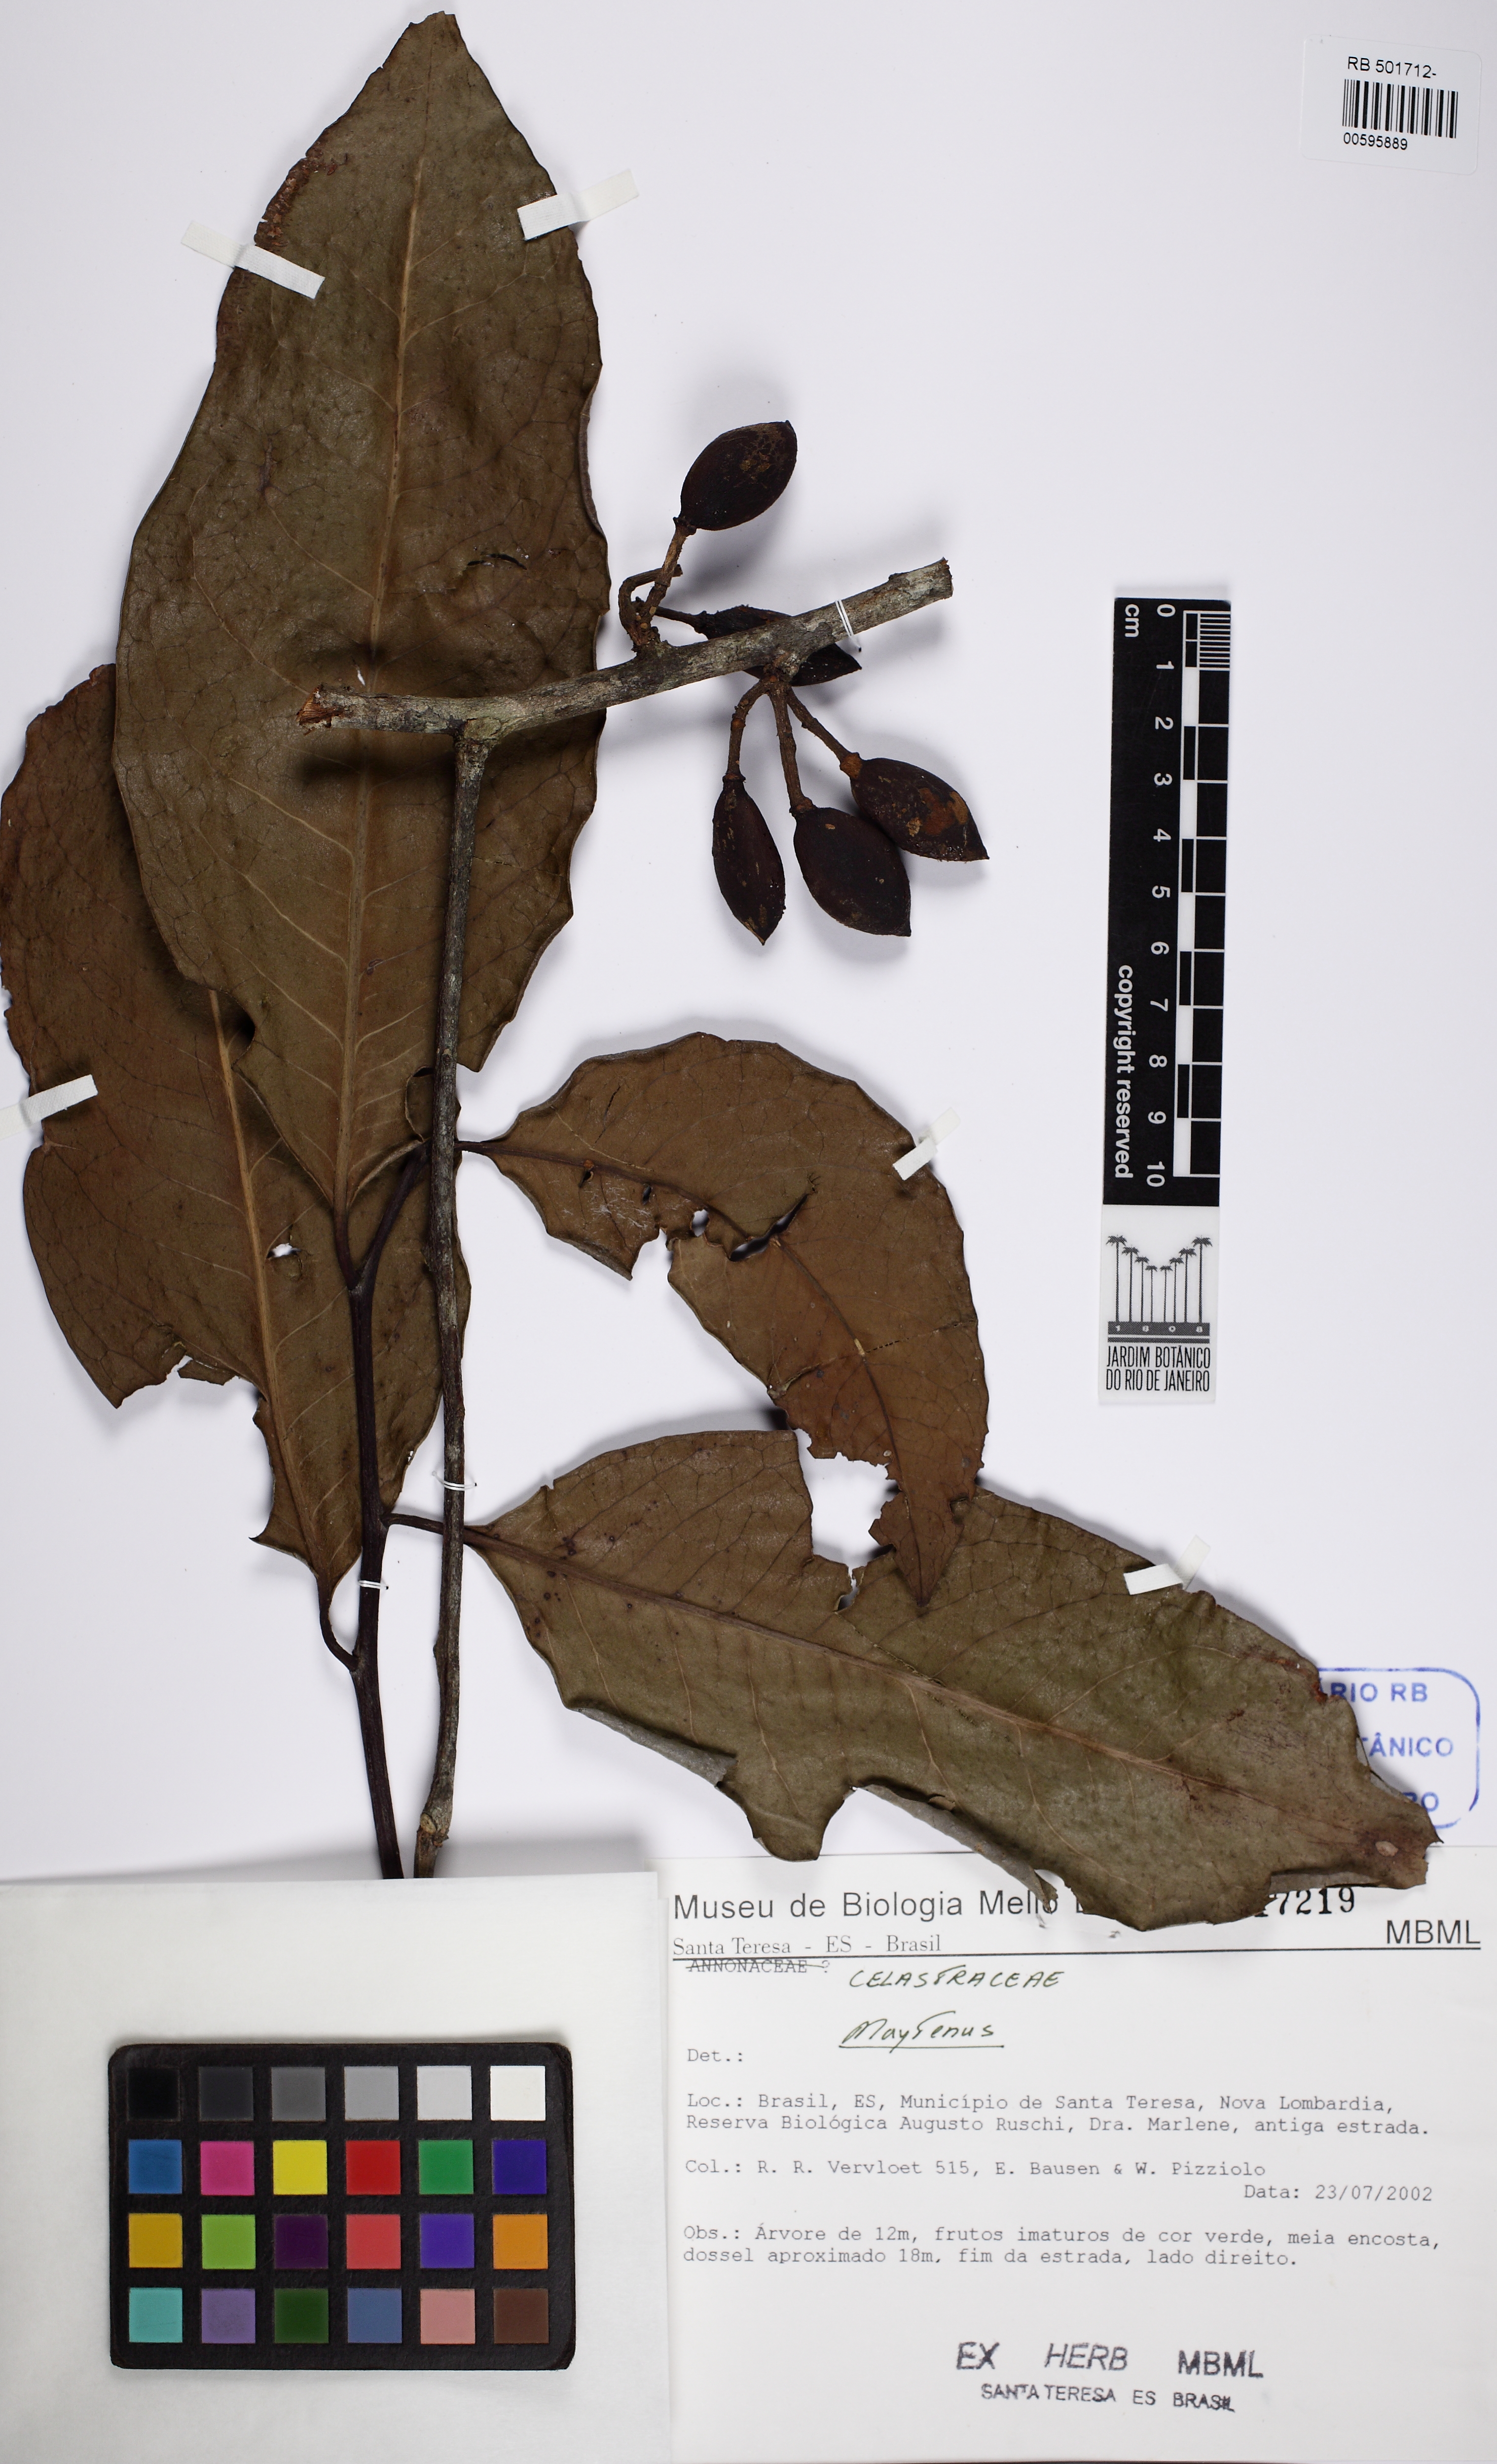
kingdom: Plantae
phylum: Tracheophyta
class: Magnoliopsida
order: Celastrales
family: Celastraceae
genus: Monteverdia
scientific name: Monteverdia fugax
